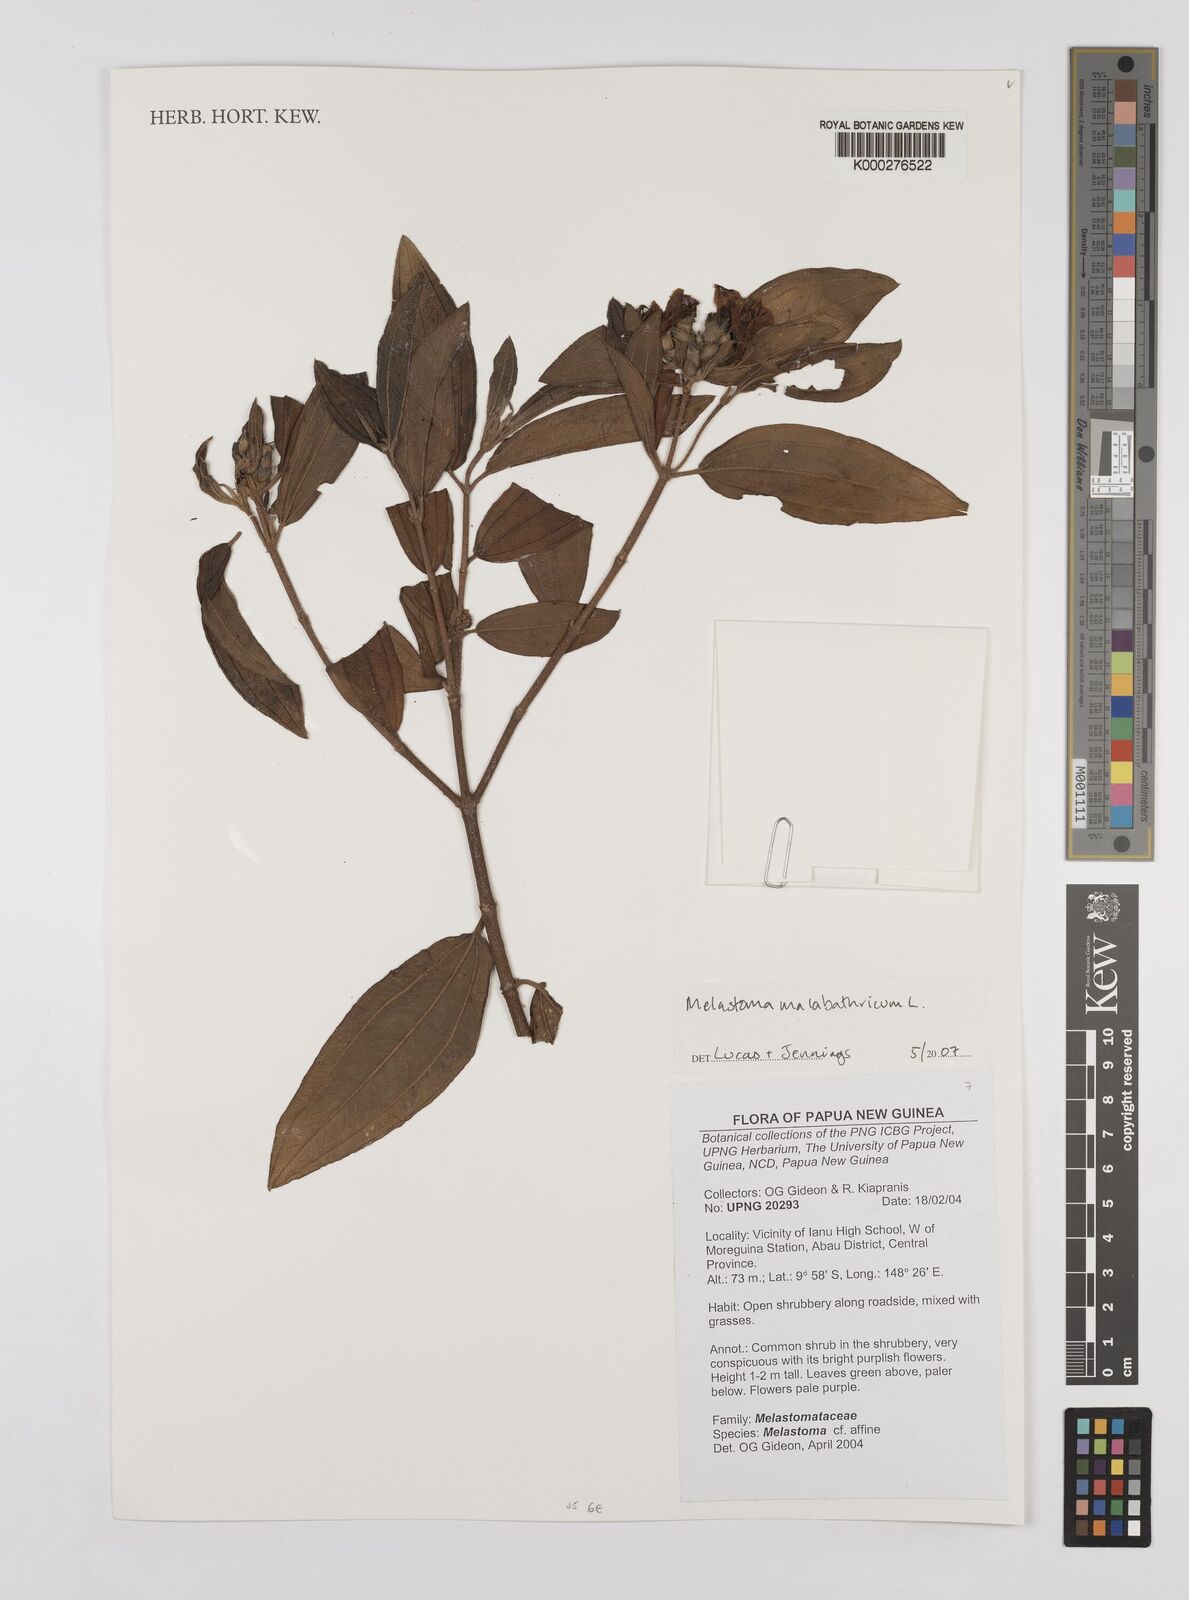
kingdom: Plantae
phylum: Tracheophyta
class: Magnoliopsida
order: Myrtales
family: Melastomataceae
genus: Melastoma
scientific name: Melastoma malabathricum
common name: Indian-rhododendron
